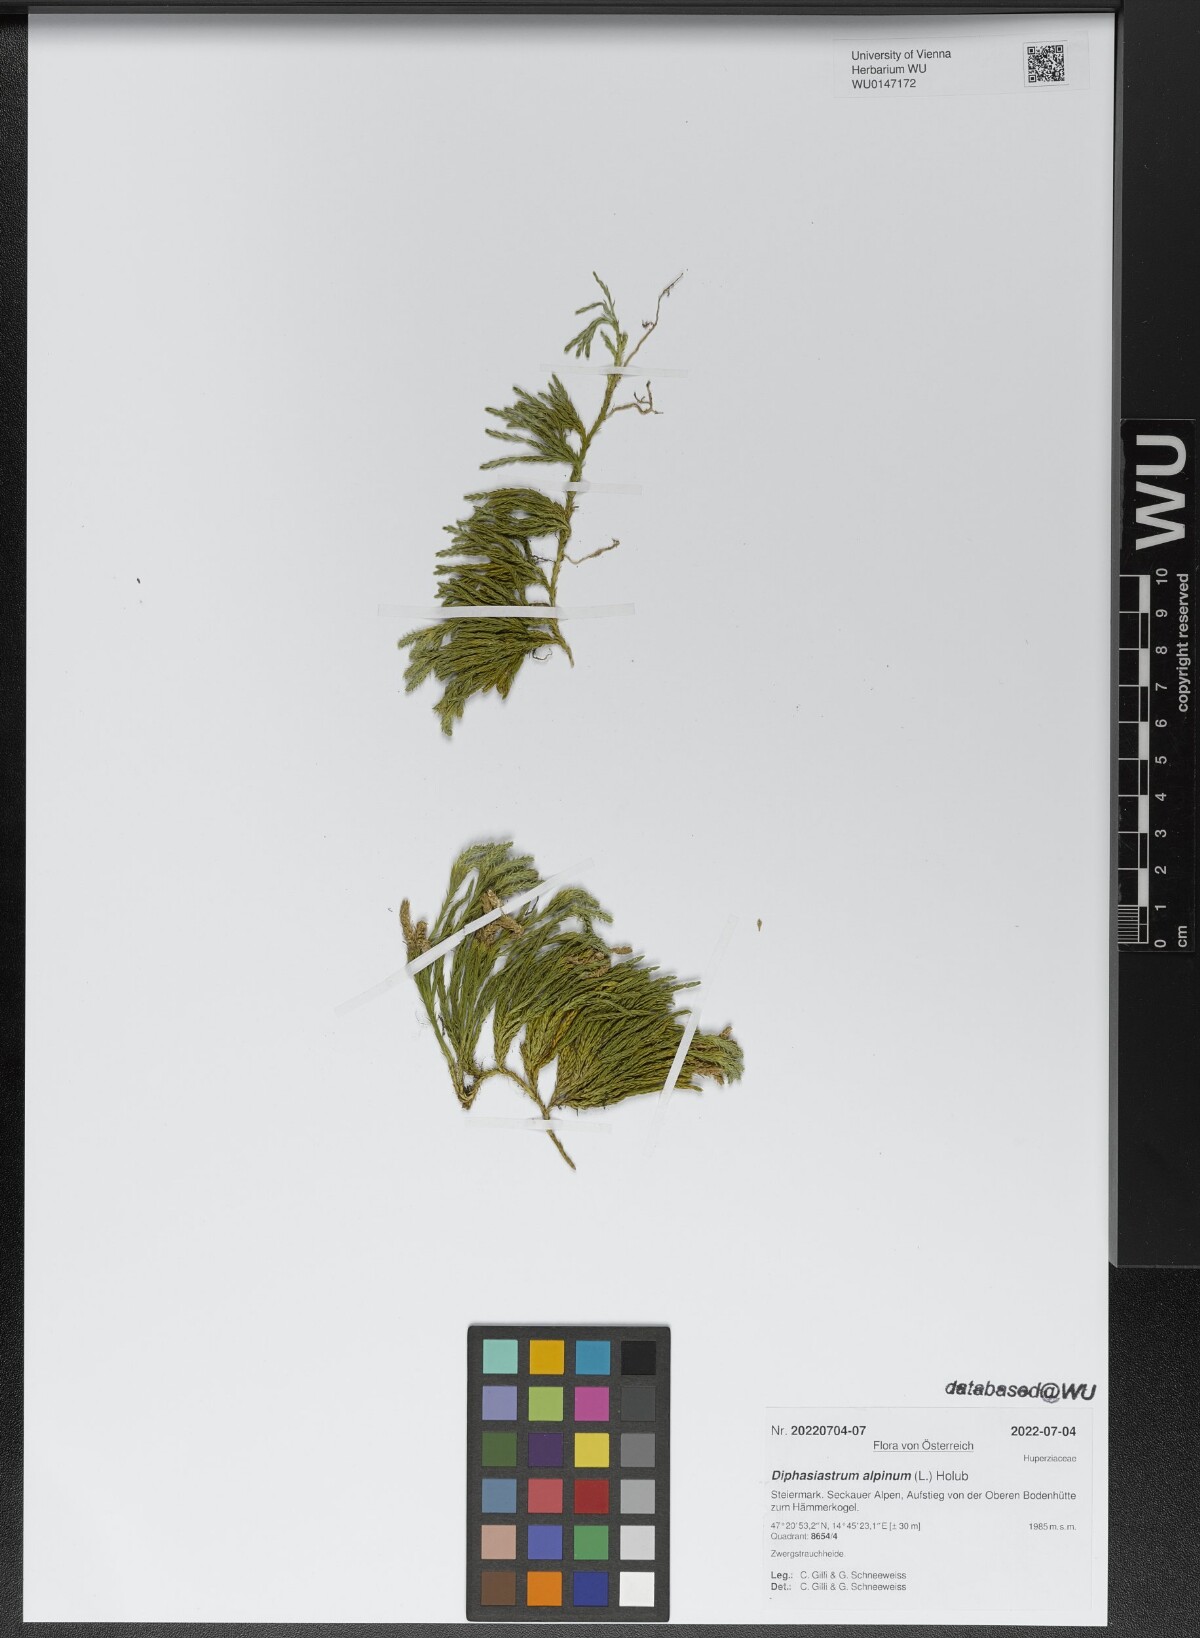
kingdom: Plantae
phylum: Tracheophyta
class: Lycopodiopsida
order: Lycopodiales
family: Lycopodiaceae
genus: Diphasiastrum
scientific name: Diphasiastrum alpinum
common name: Alpine clubmoss
